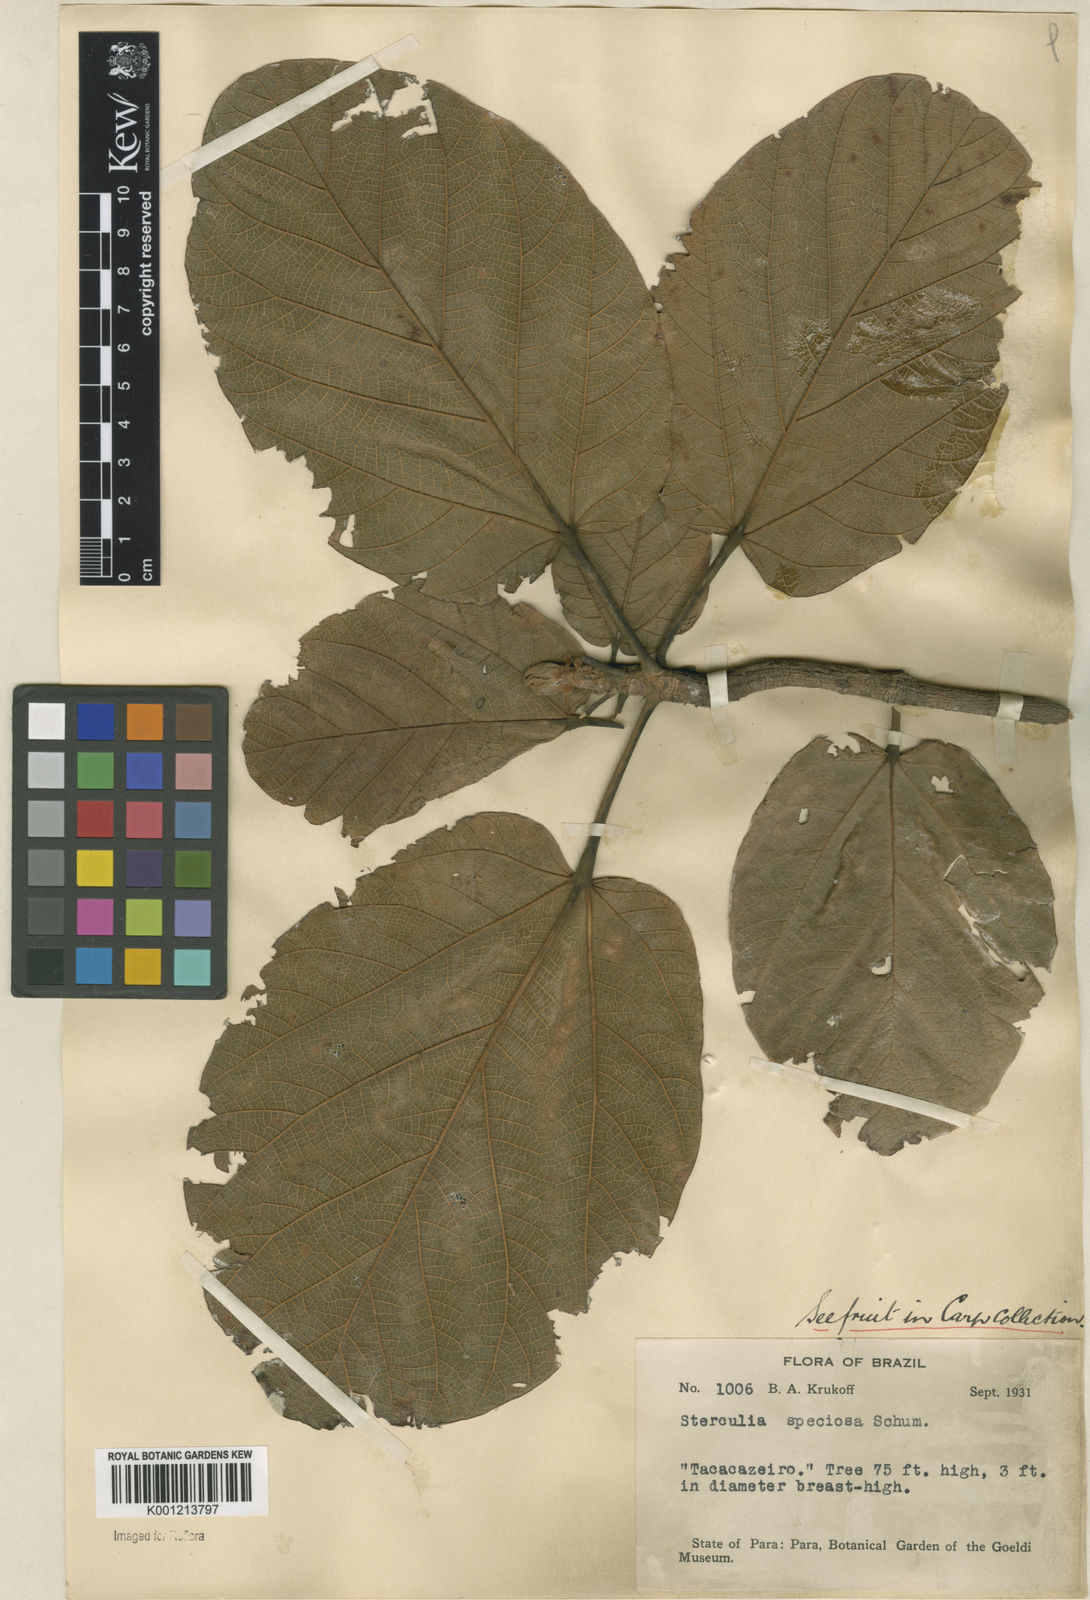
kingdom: Plantae
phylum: Tracheophyta
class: Magnoliopsida
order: Malvales
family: Malvaceae
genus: Sterculia
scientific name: Sterculia speciosa
